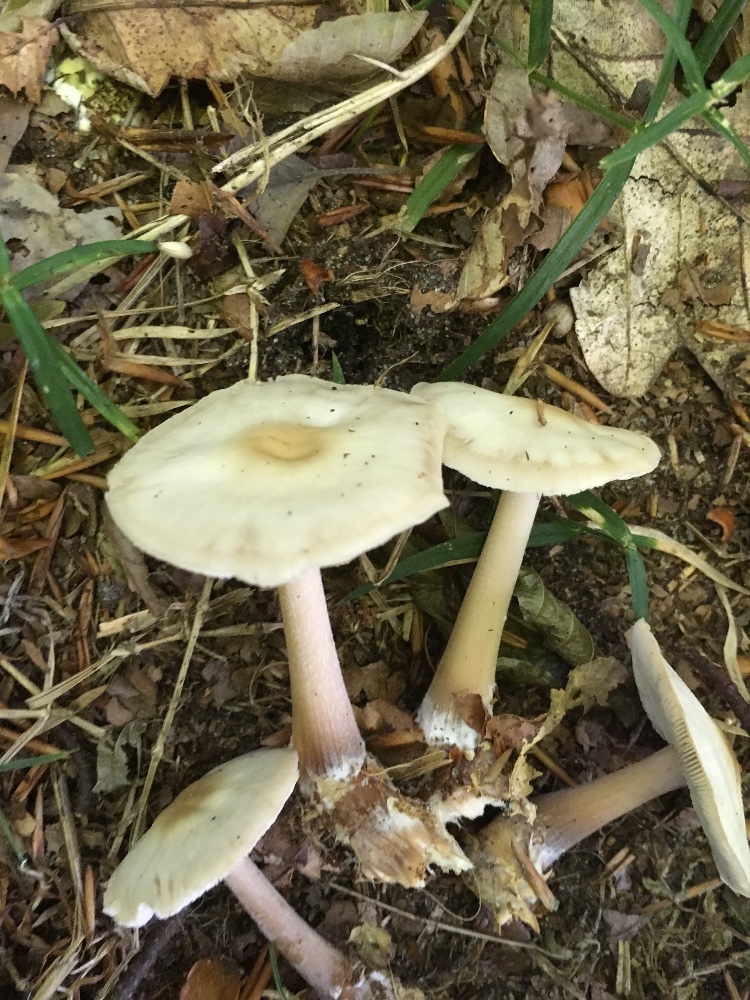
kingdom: Fungi
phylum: Basidiomycota
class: Agaricomycetes
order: Agaricales
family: Omphalotaceae
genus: Rhodocollybia
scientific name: Rhodocollybia asema
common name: horngrå fladhat
